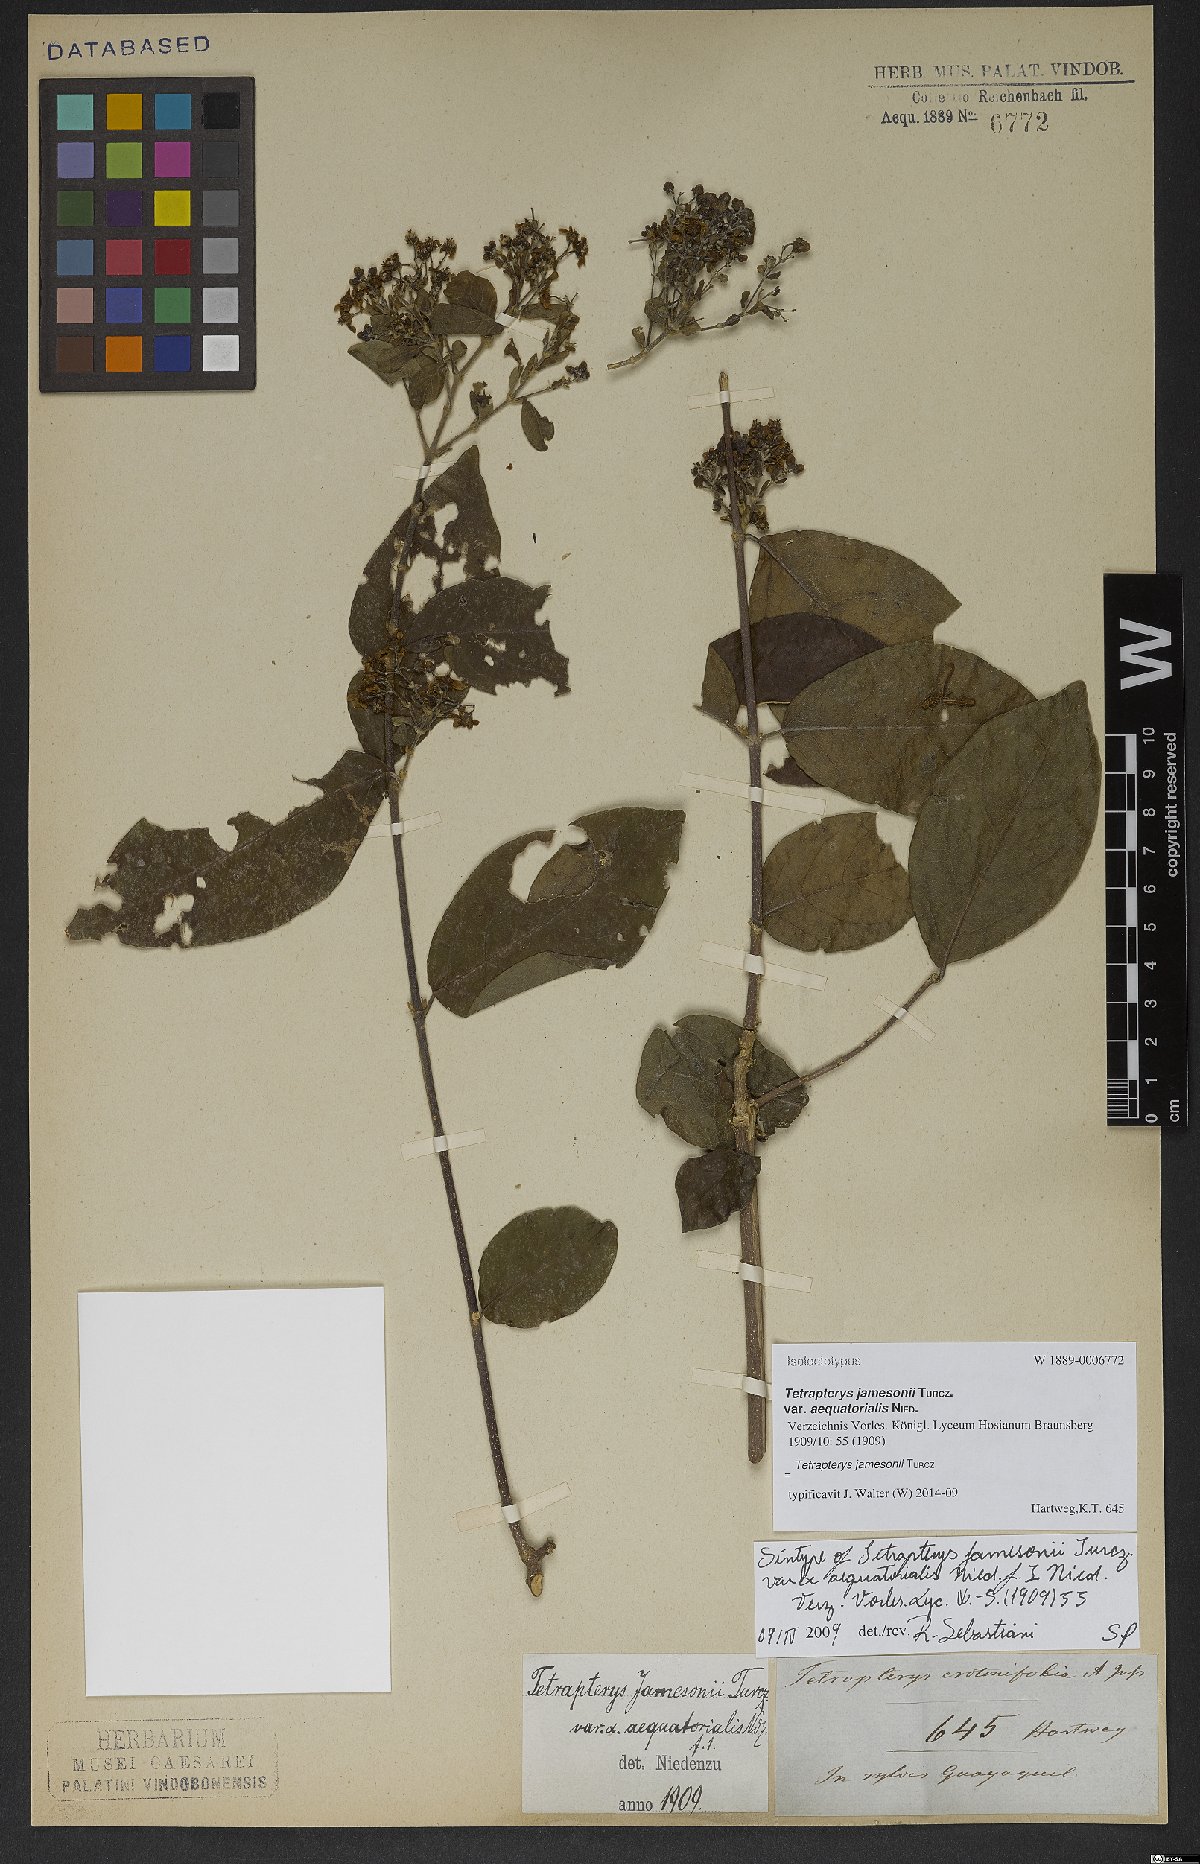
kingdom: Plantae
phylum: Tracheophyta
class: Magnoliopsida
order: Malpighiales
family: Malpighiaceae
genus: Tetrapterys
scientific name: Tetrapterys jamesonii
